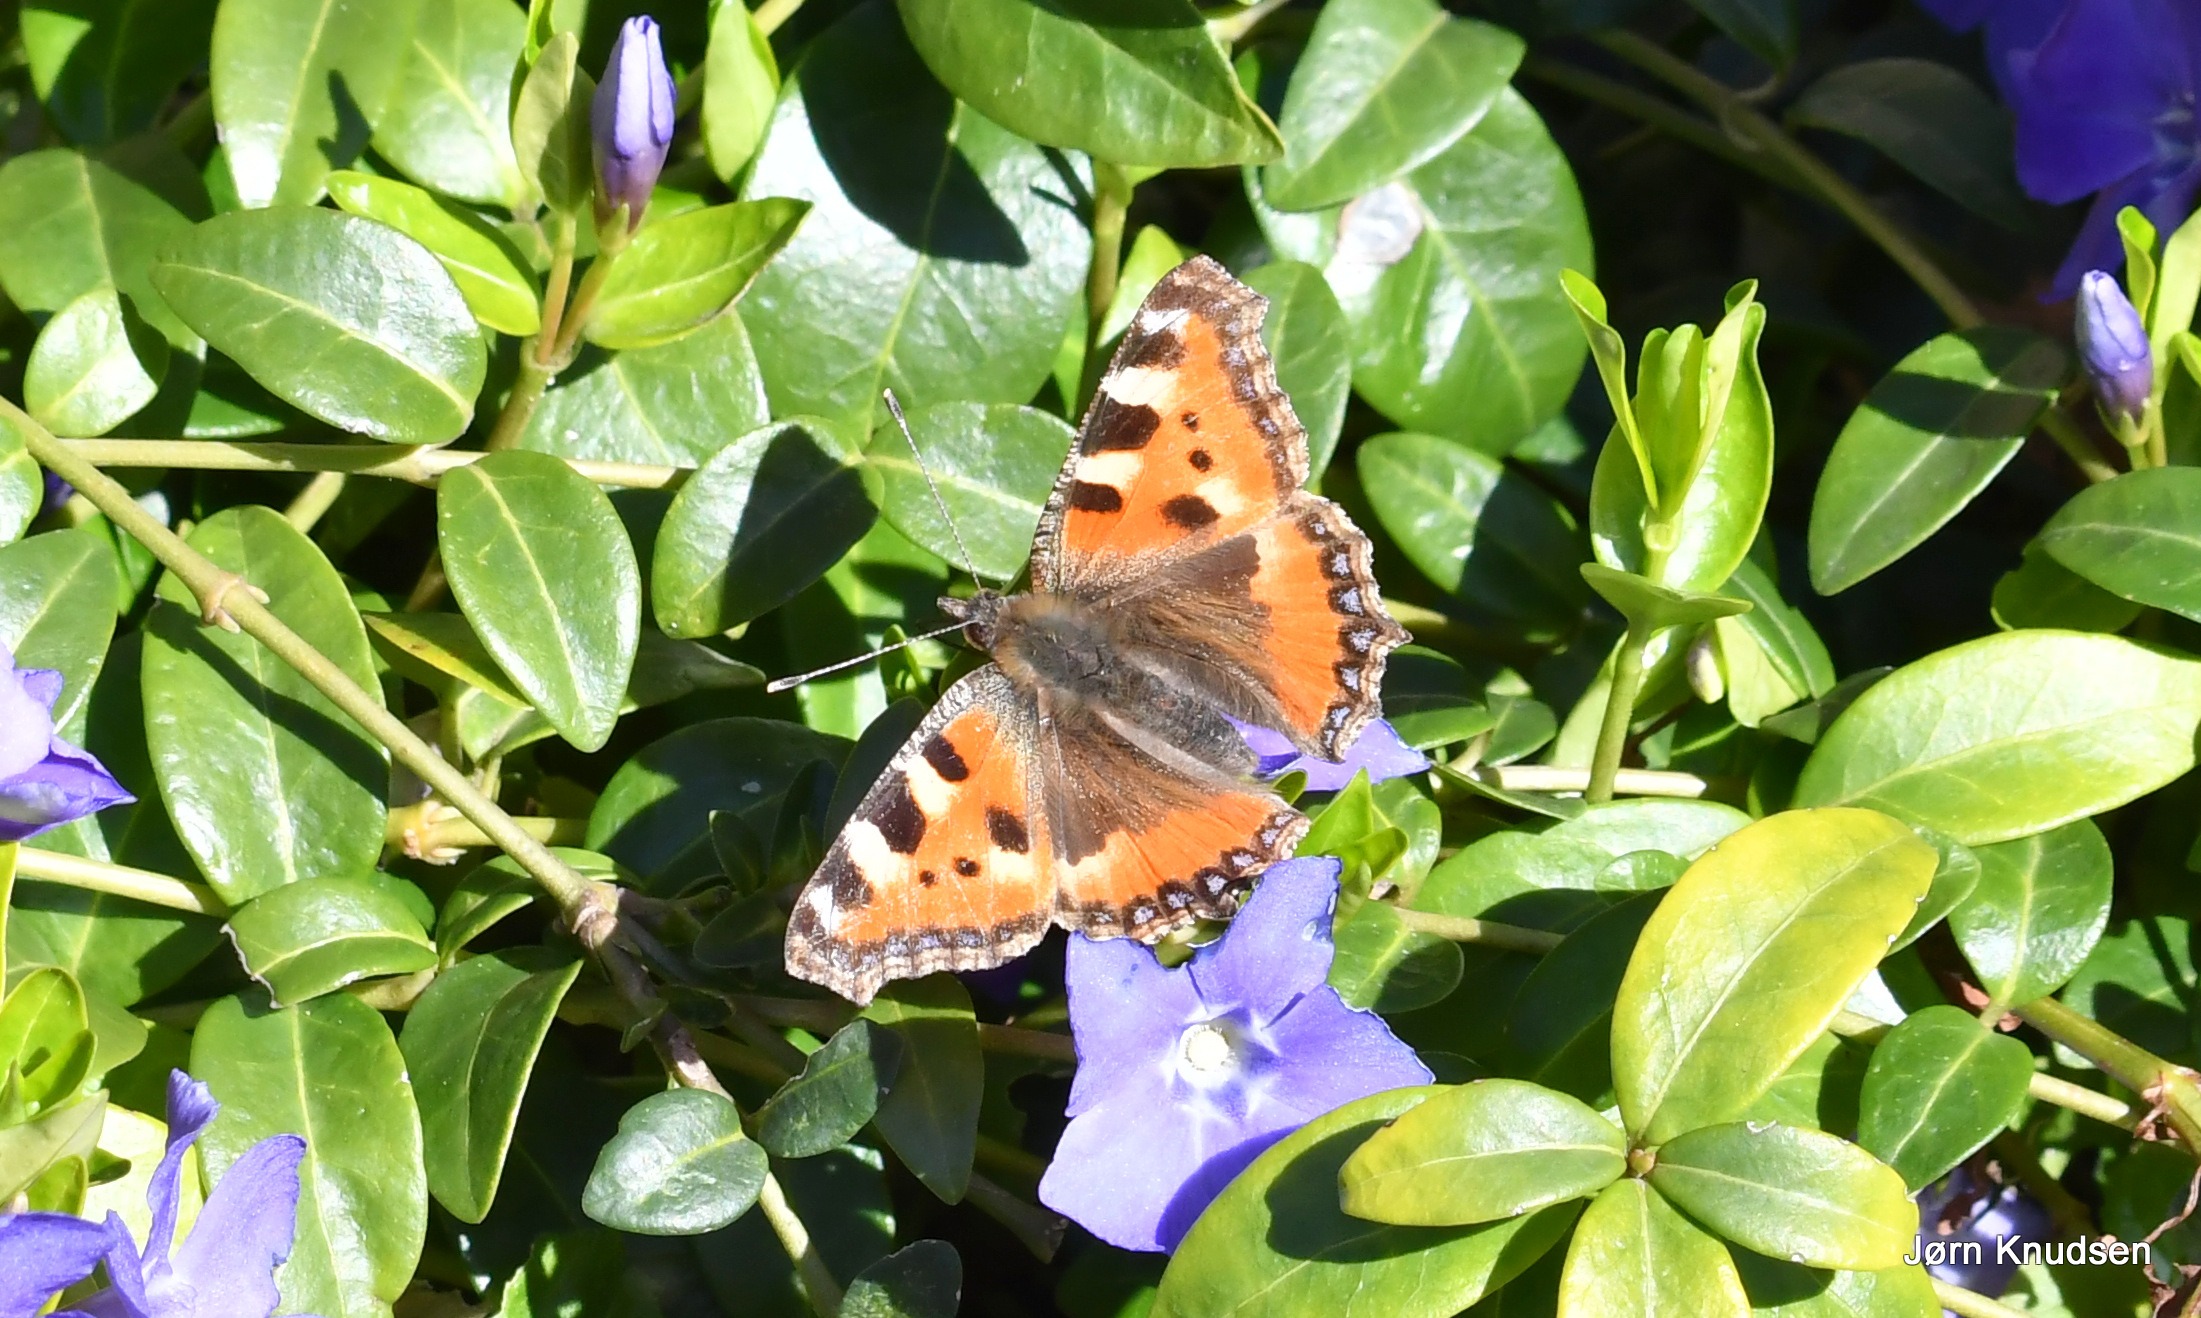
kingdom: Animalia
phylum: Arthropoda
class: Insecta
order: Lepidoptera
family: Nymphalidae
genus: Aglais
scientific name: Aglais urticae
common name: Nældens takvinge
